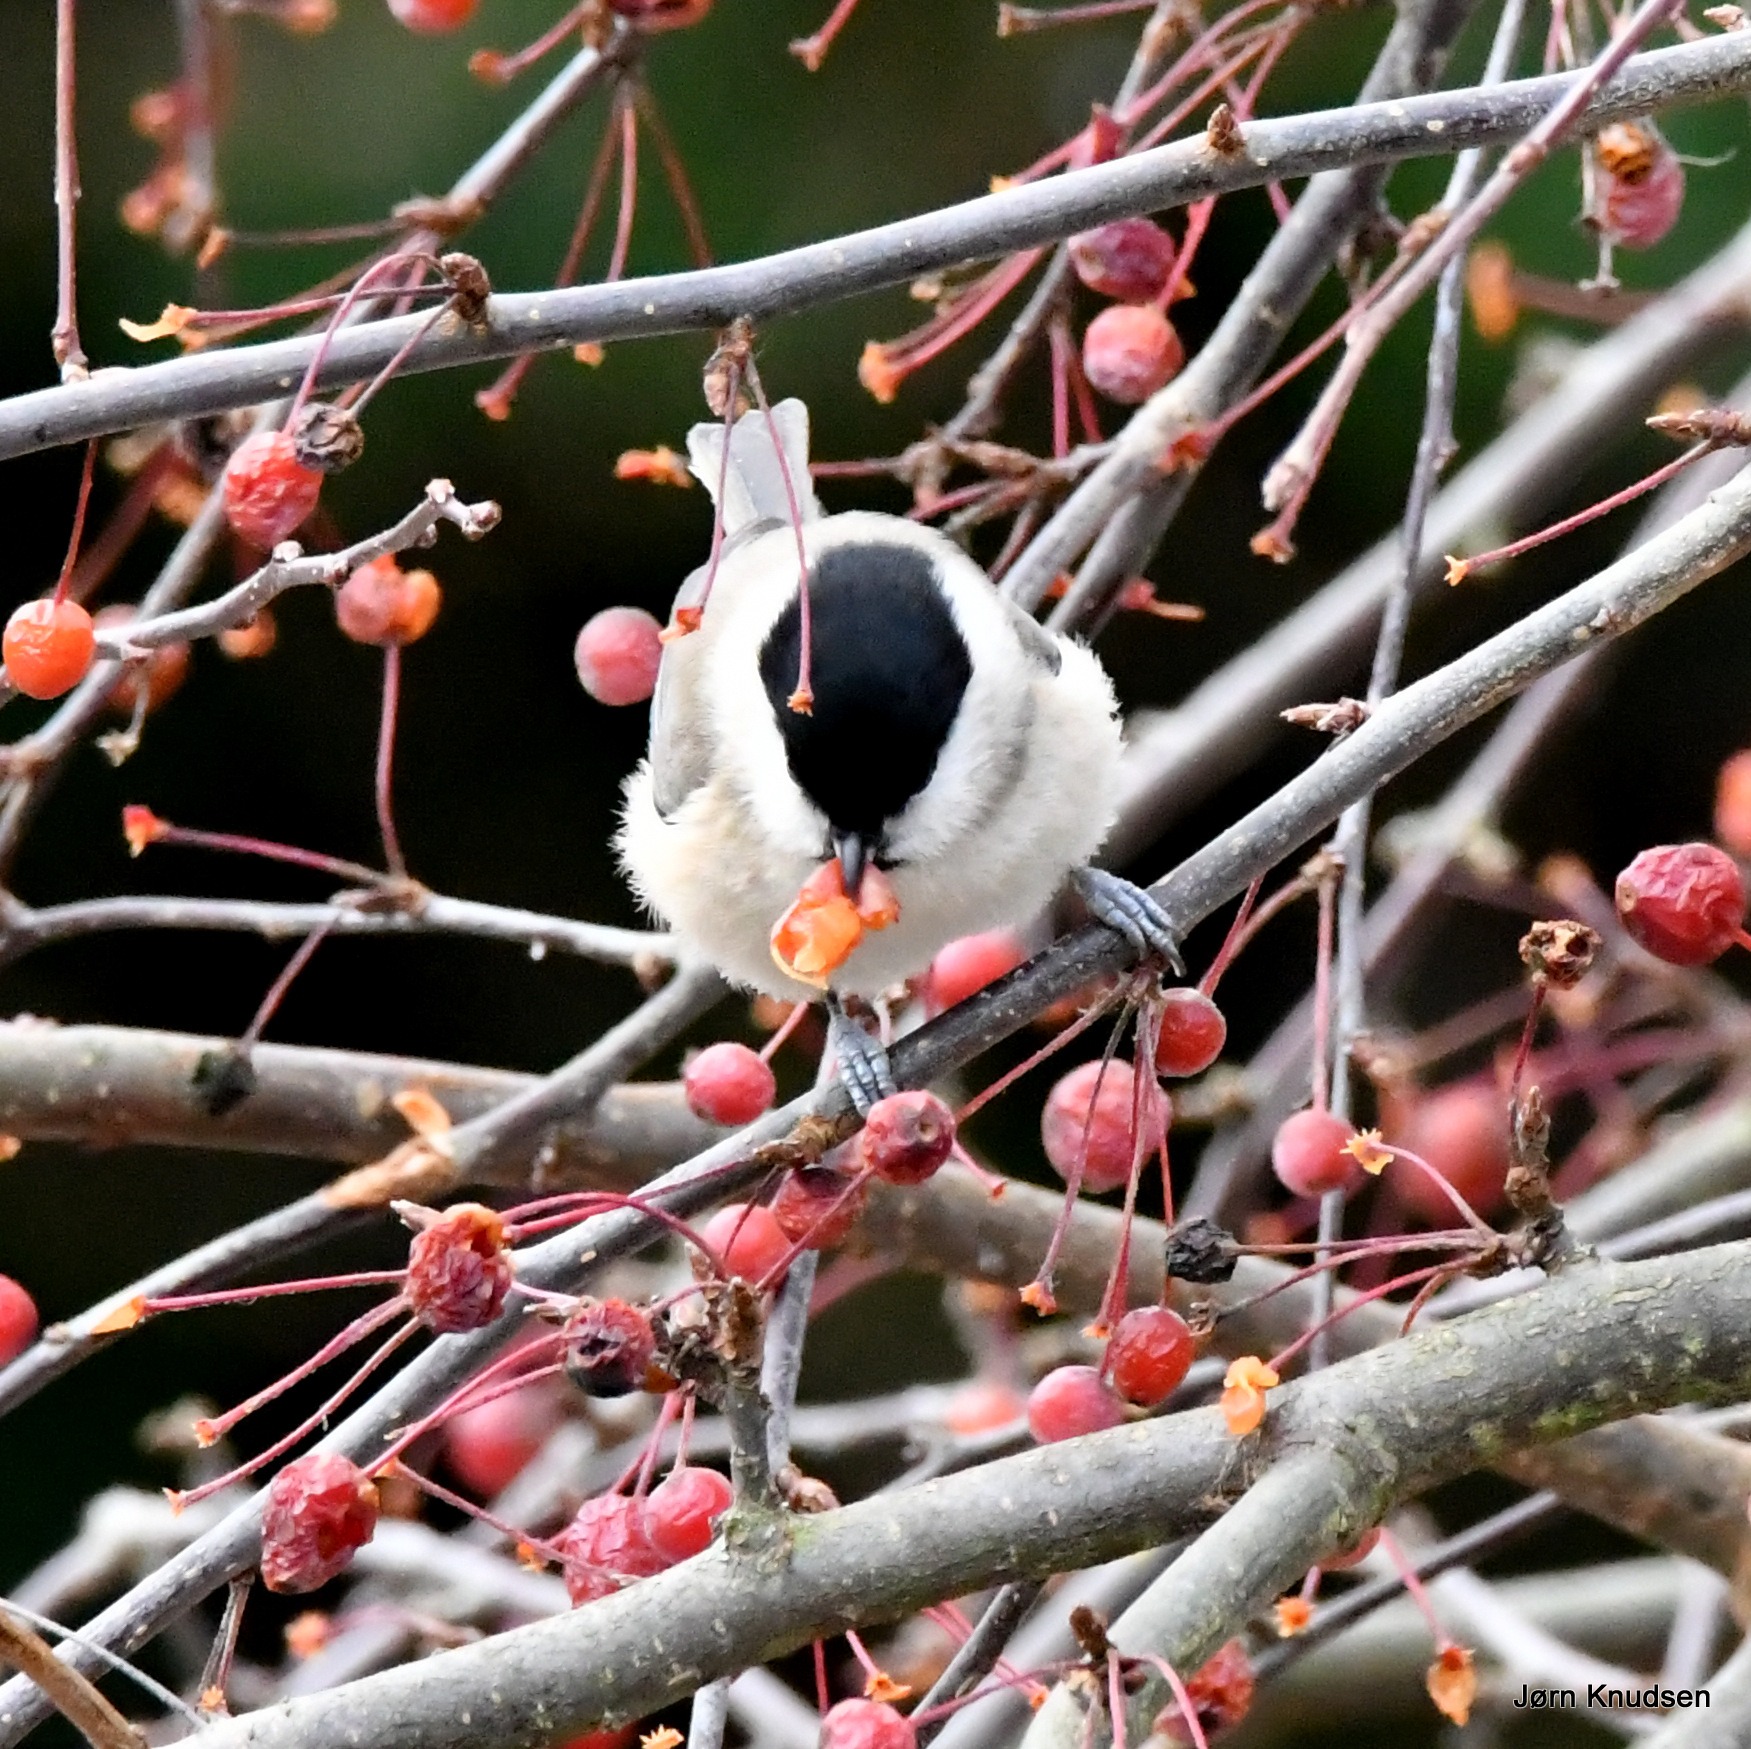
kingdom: Animalia
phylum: Chordata
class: Aves
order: Passeriformes
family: Paridae
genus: Poecile
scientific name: Poecile palustris
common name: Sumpmejse
